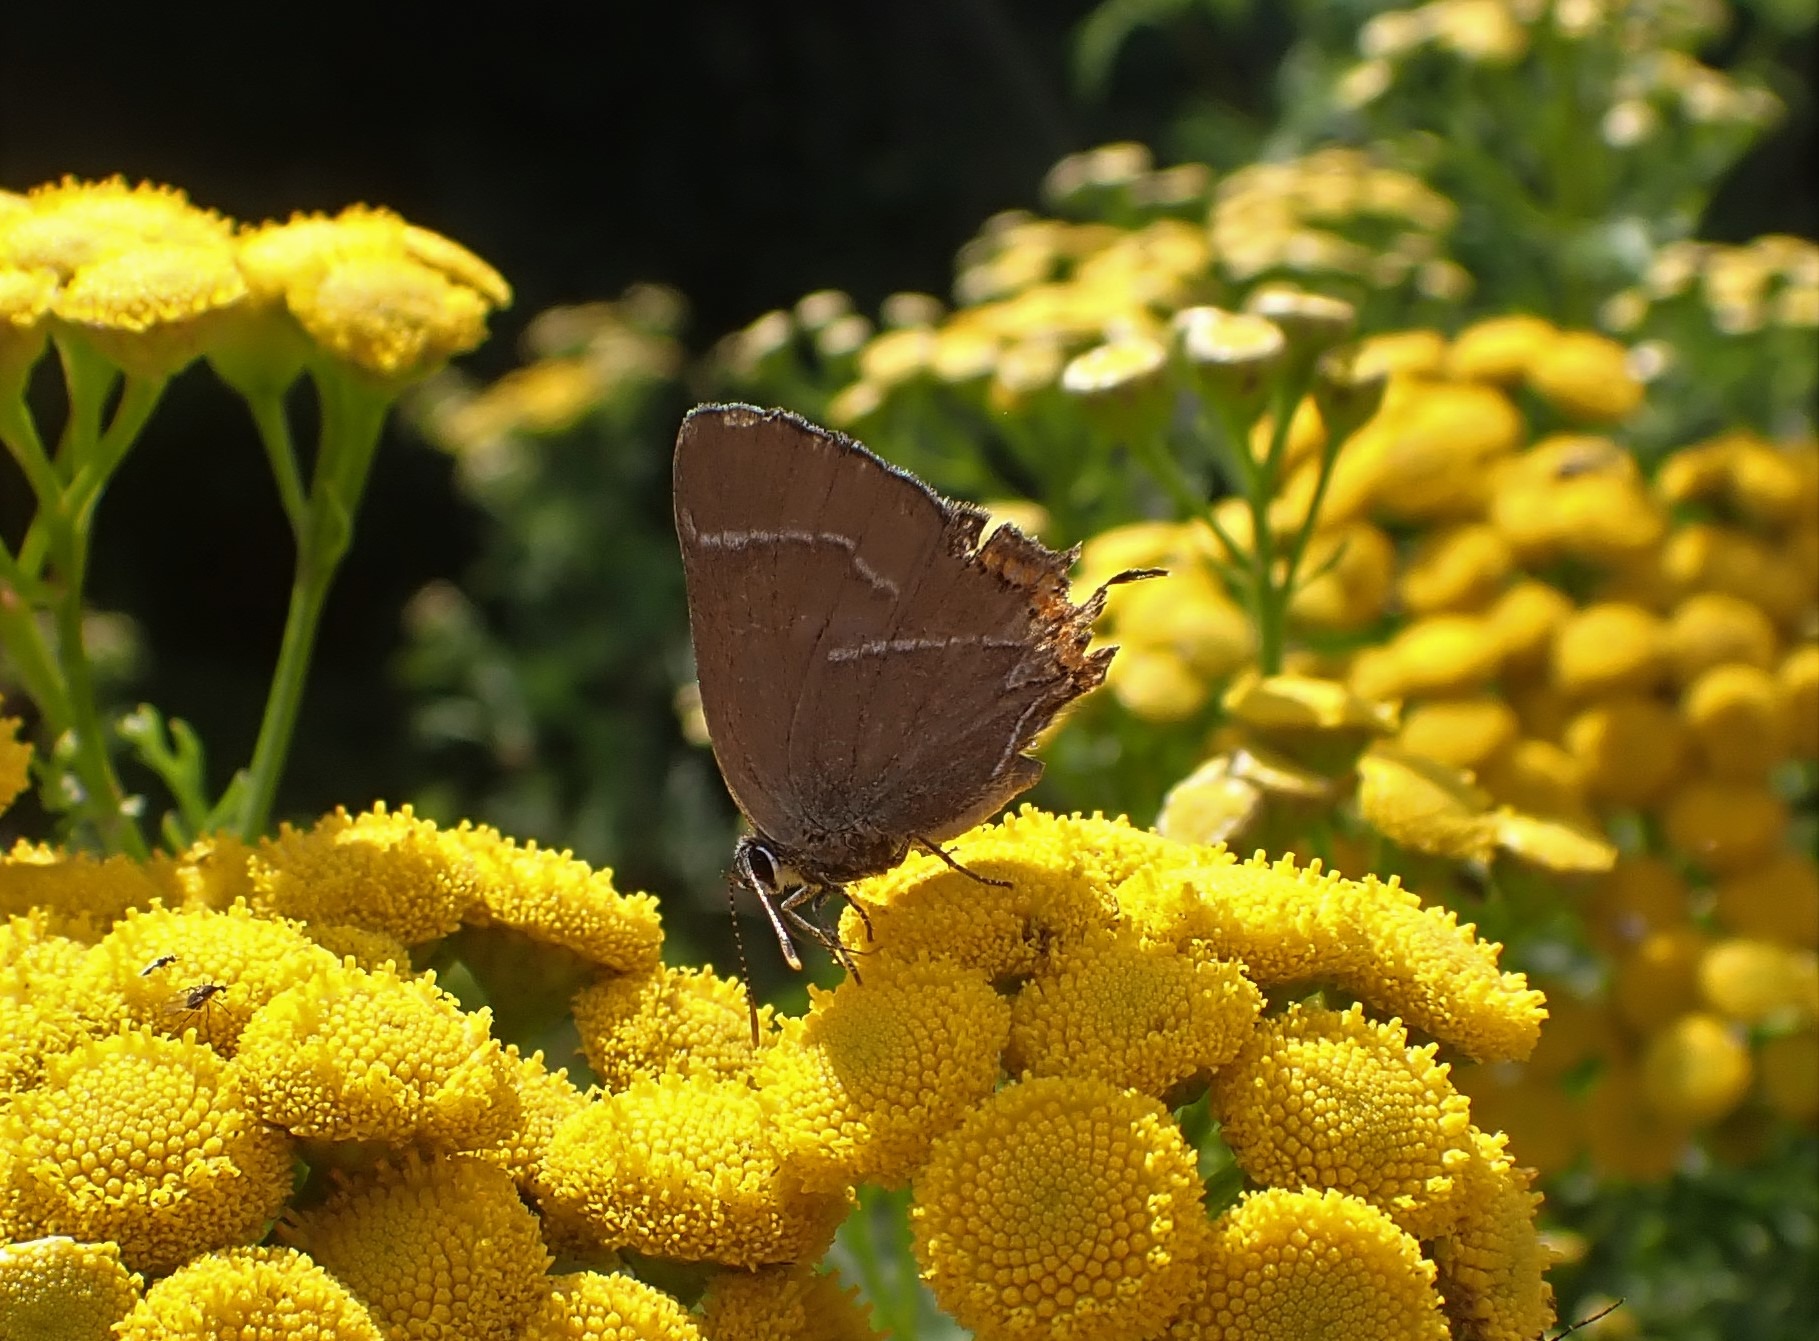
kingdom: Animalia
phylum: Arthropoda
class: Insecta
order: Lepidoptera
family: Lycaenidae
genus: Satyrium
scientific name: Satyrium w-album
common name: Det hvide W
